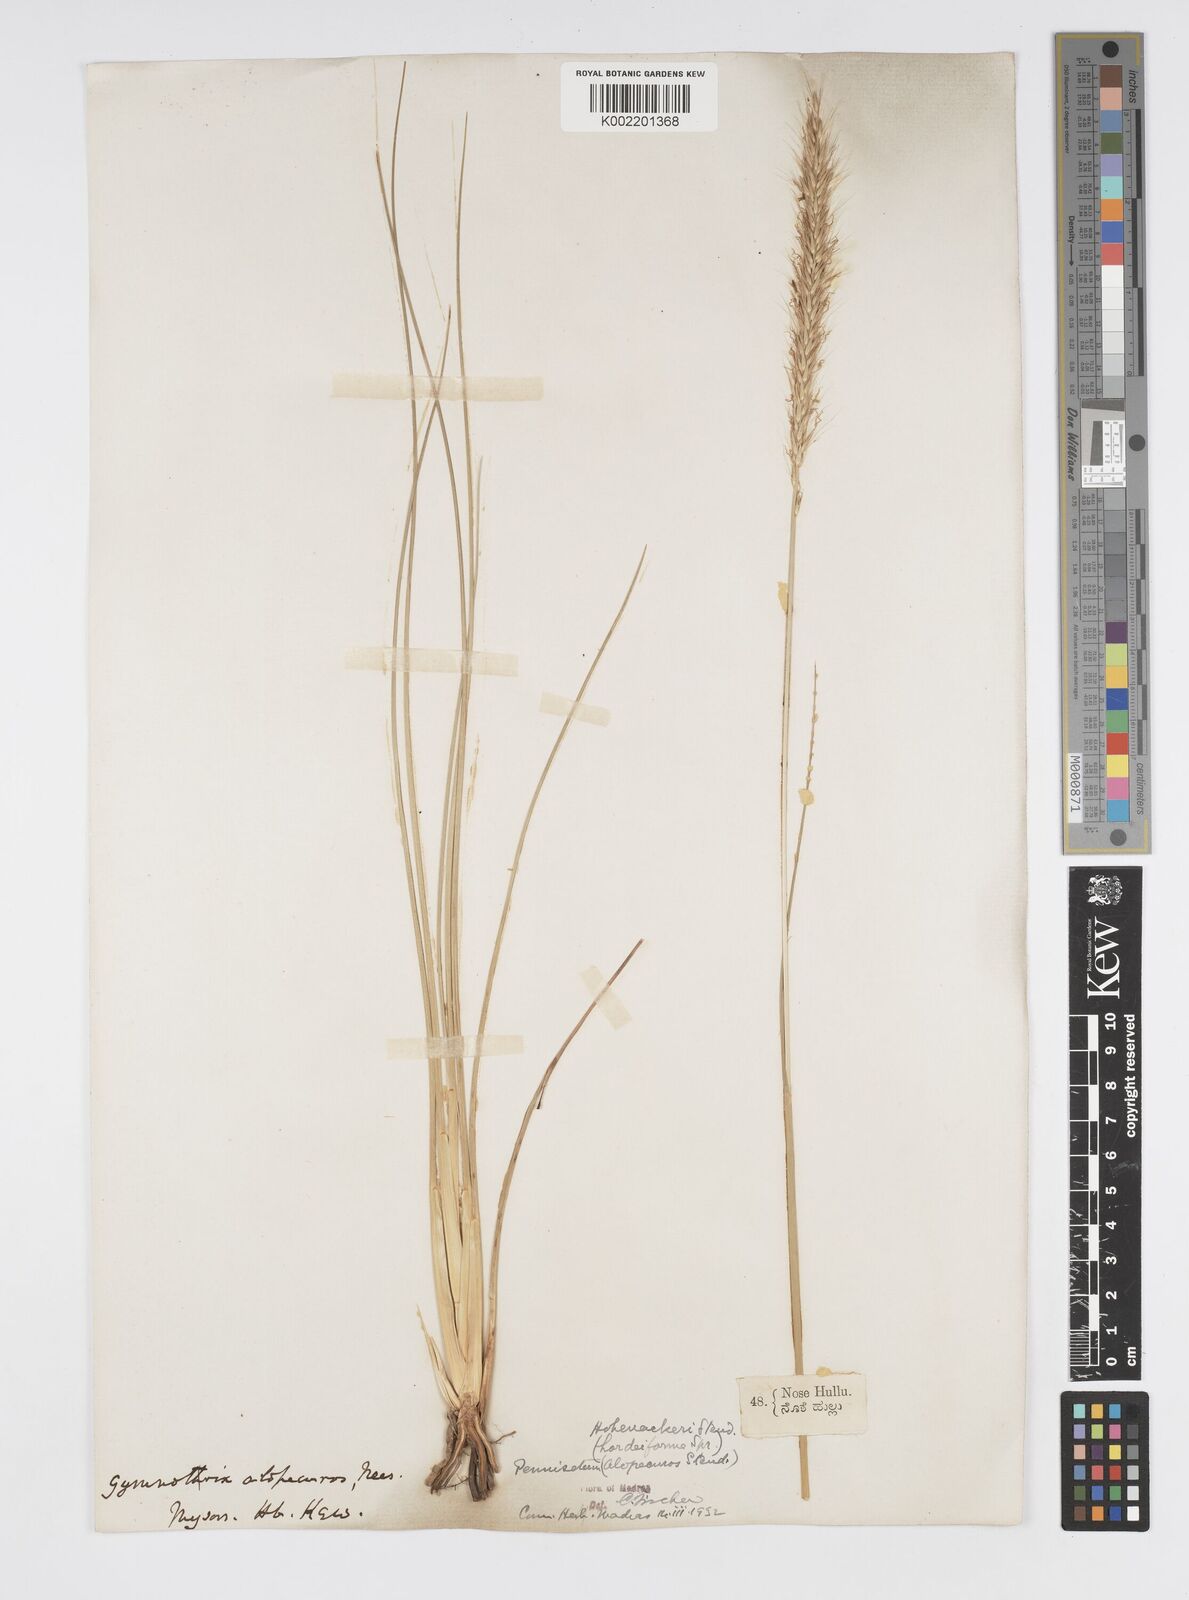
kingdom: Plantae
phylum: Tracheophyta
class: Liliopsida
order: Poales
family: Poaceae
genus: Cenchrus
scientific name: Cenchrus hohenackeri
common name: Moya grass
